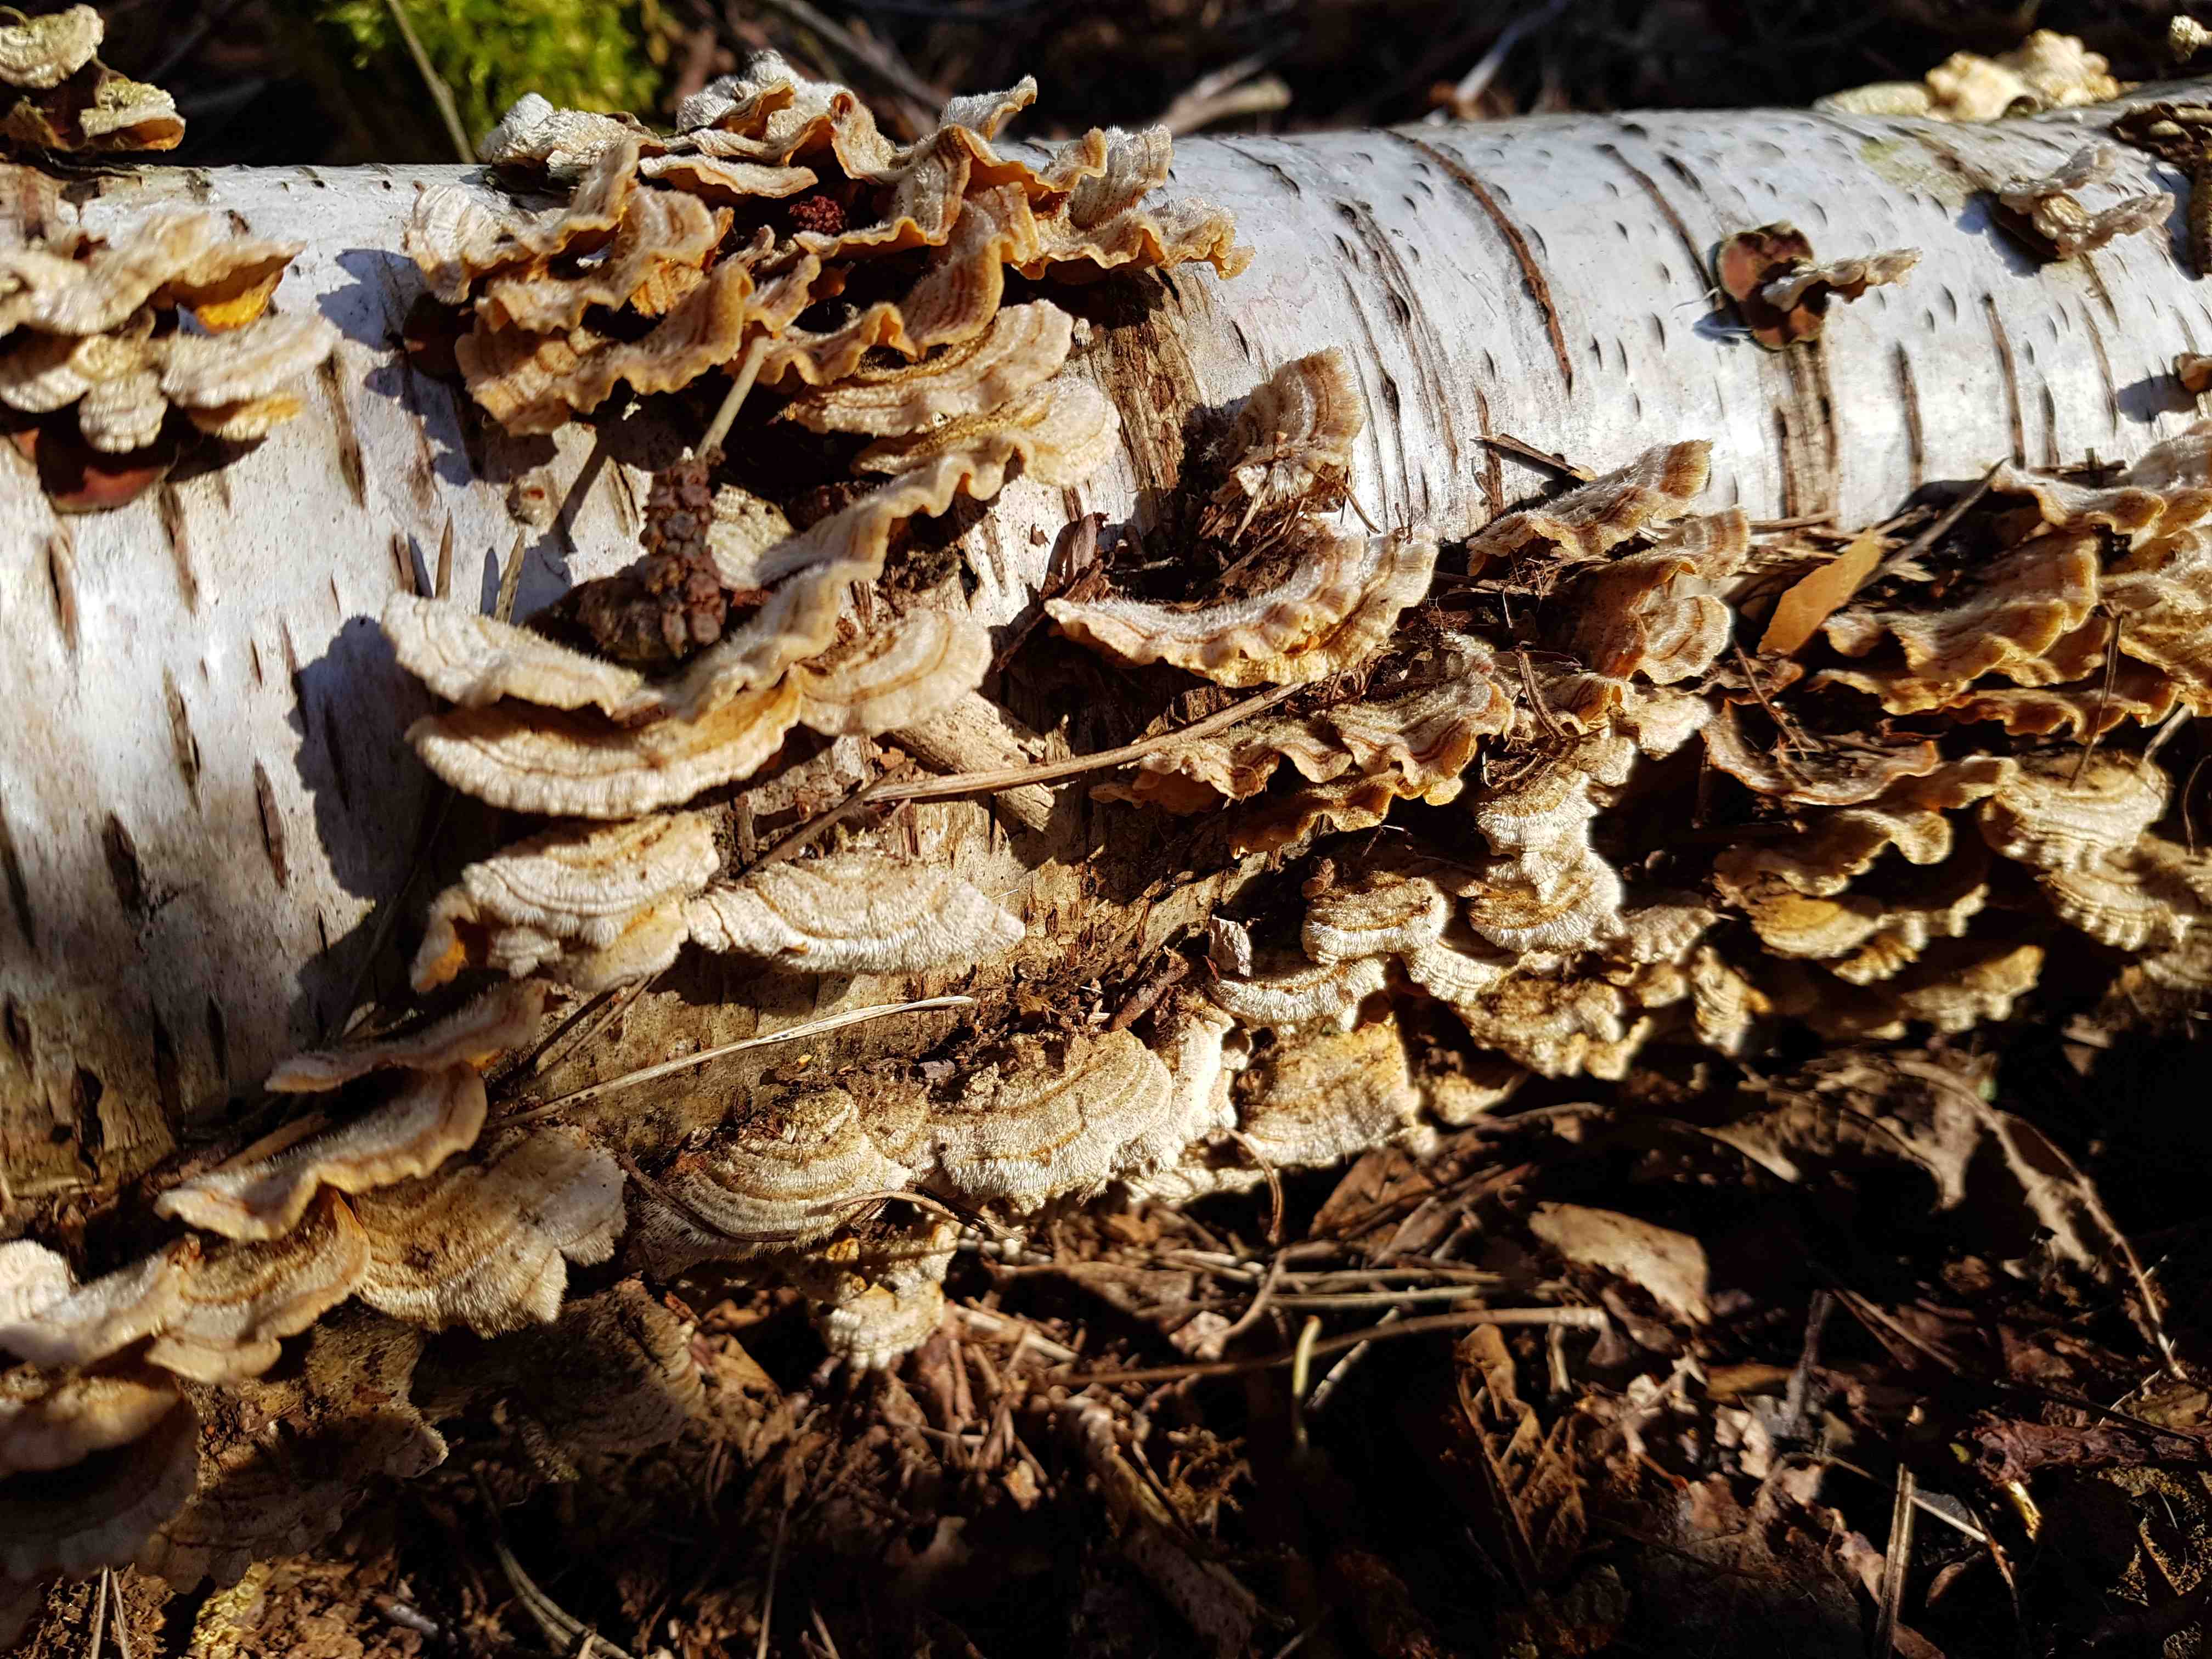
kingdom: Fungi
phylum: Basidiomycota
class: Agaricomycetes
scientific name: Agaricomycetes
